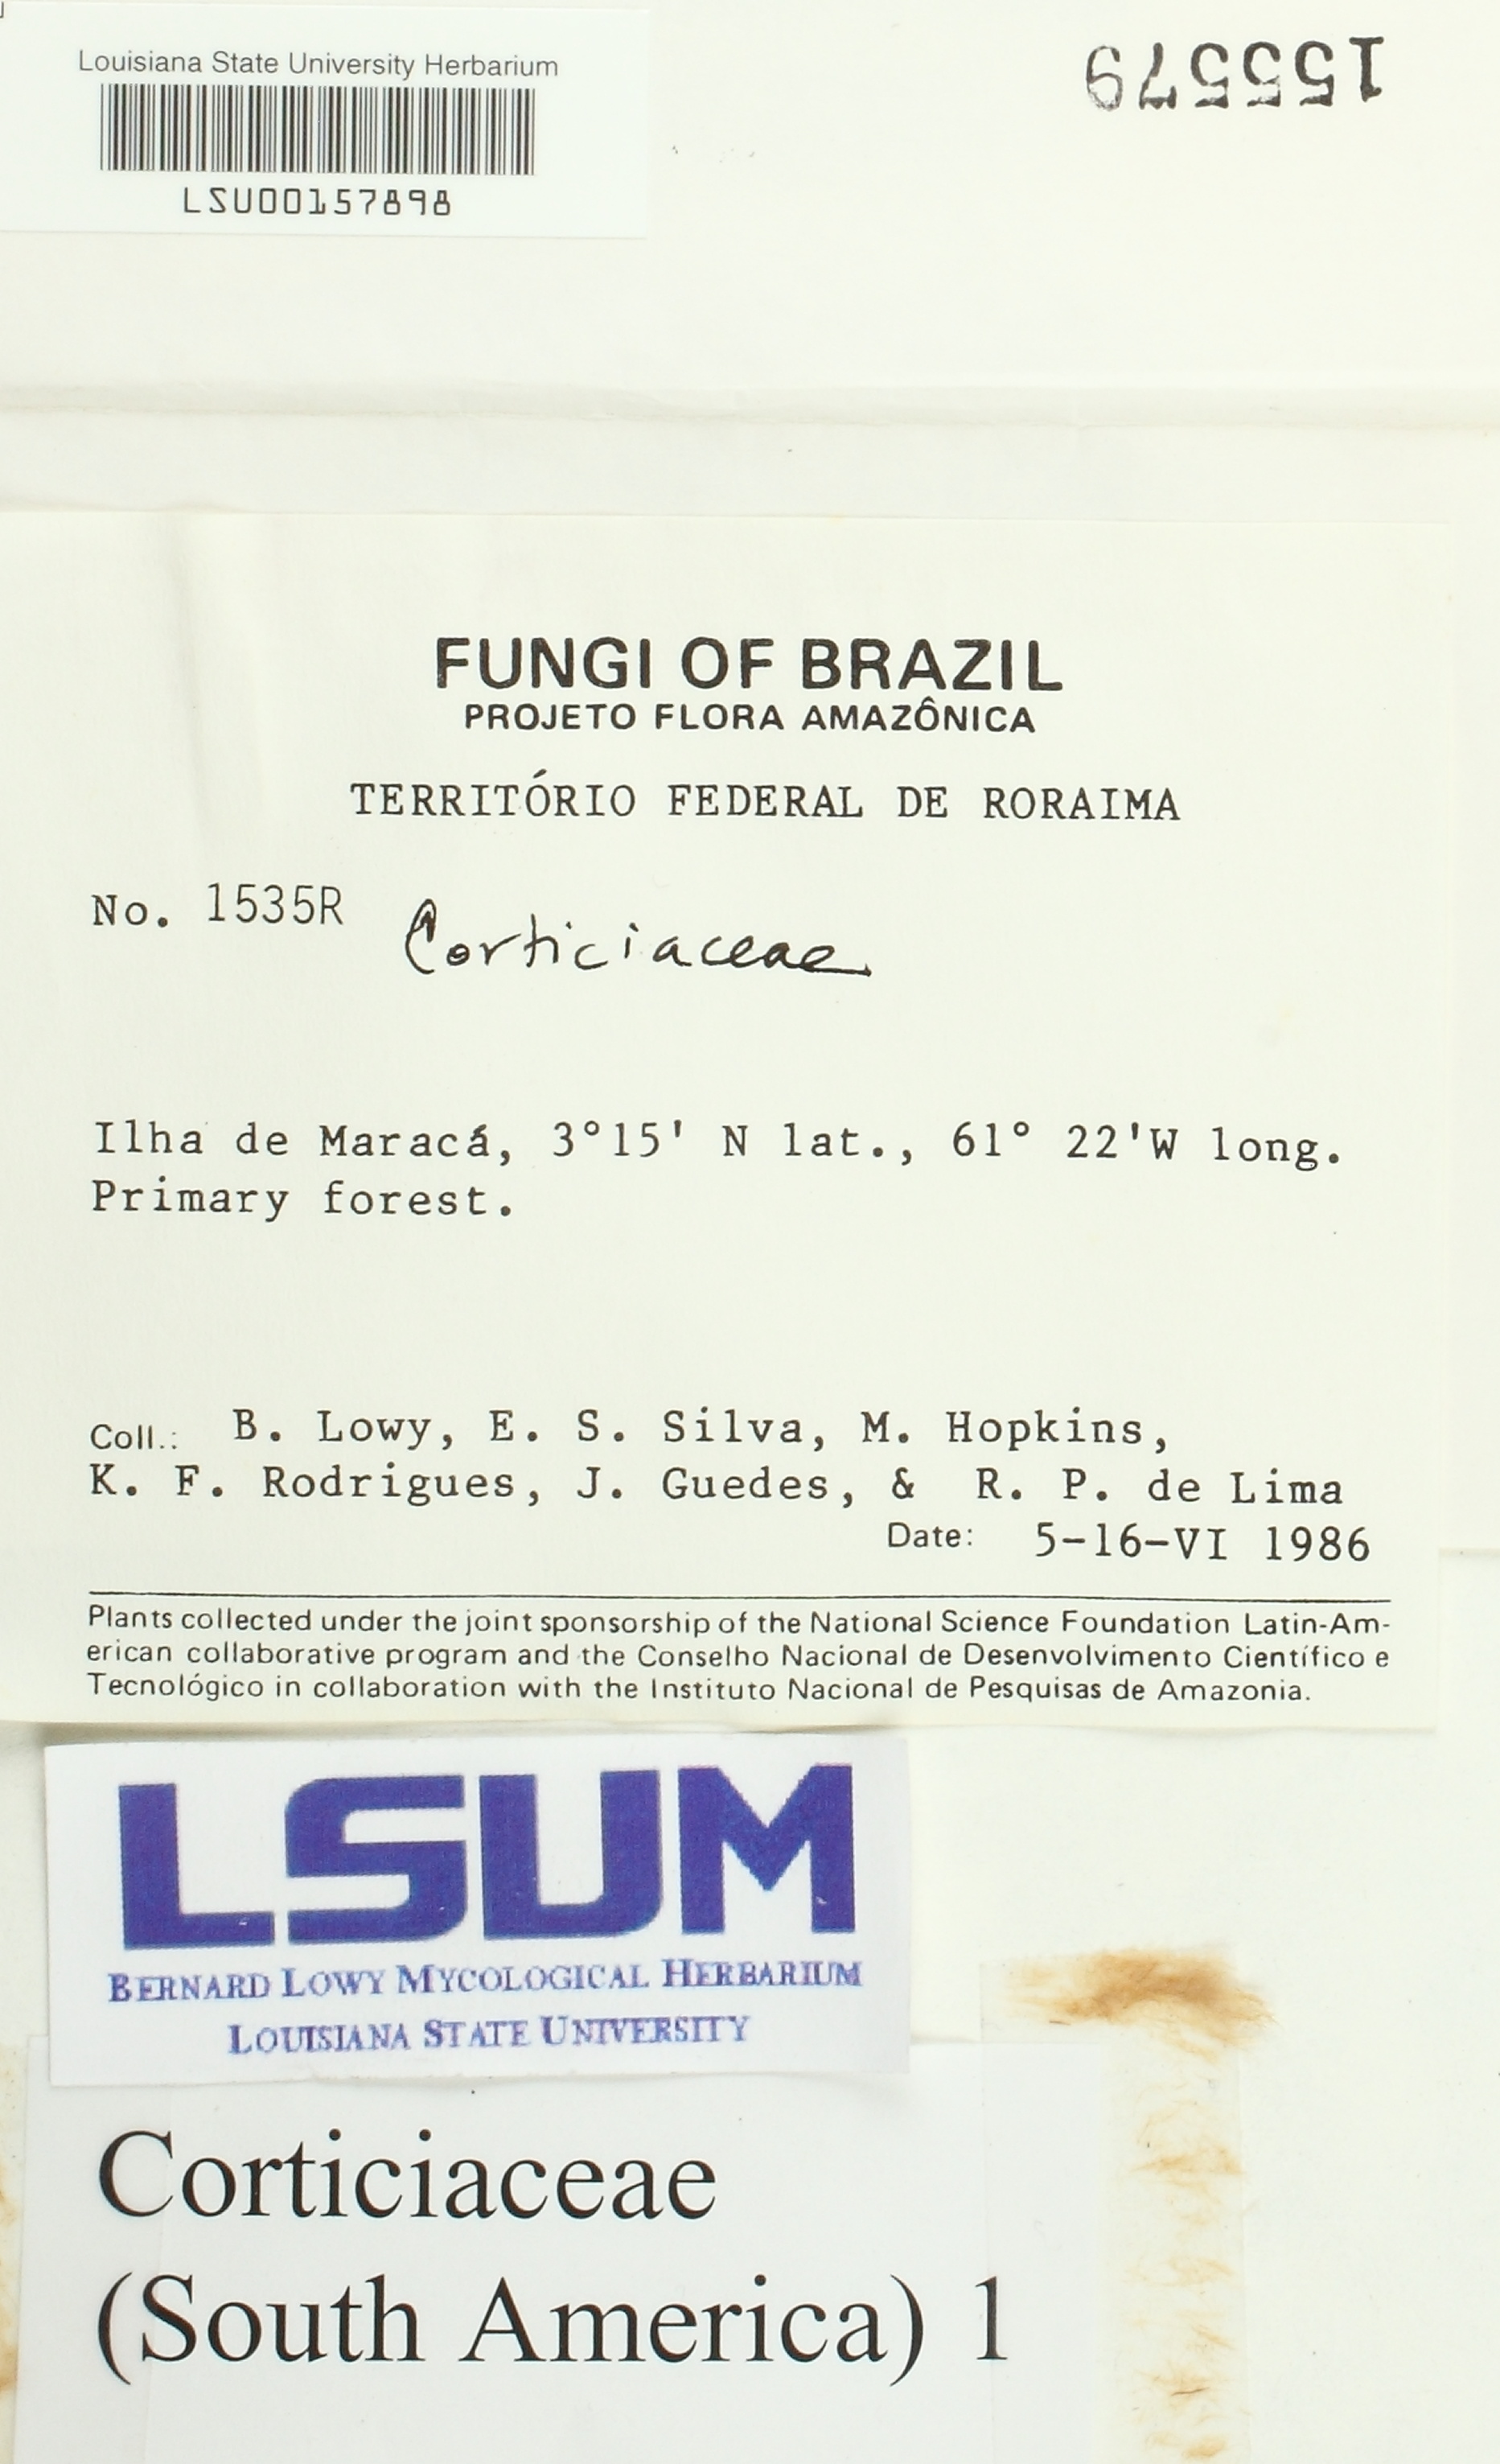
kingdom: Fungi
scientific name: Fungi
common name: Fungi
